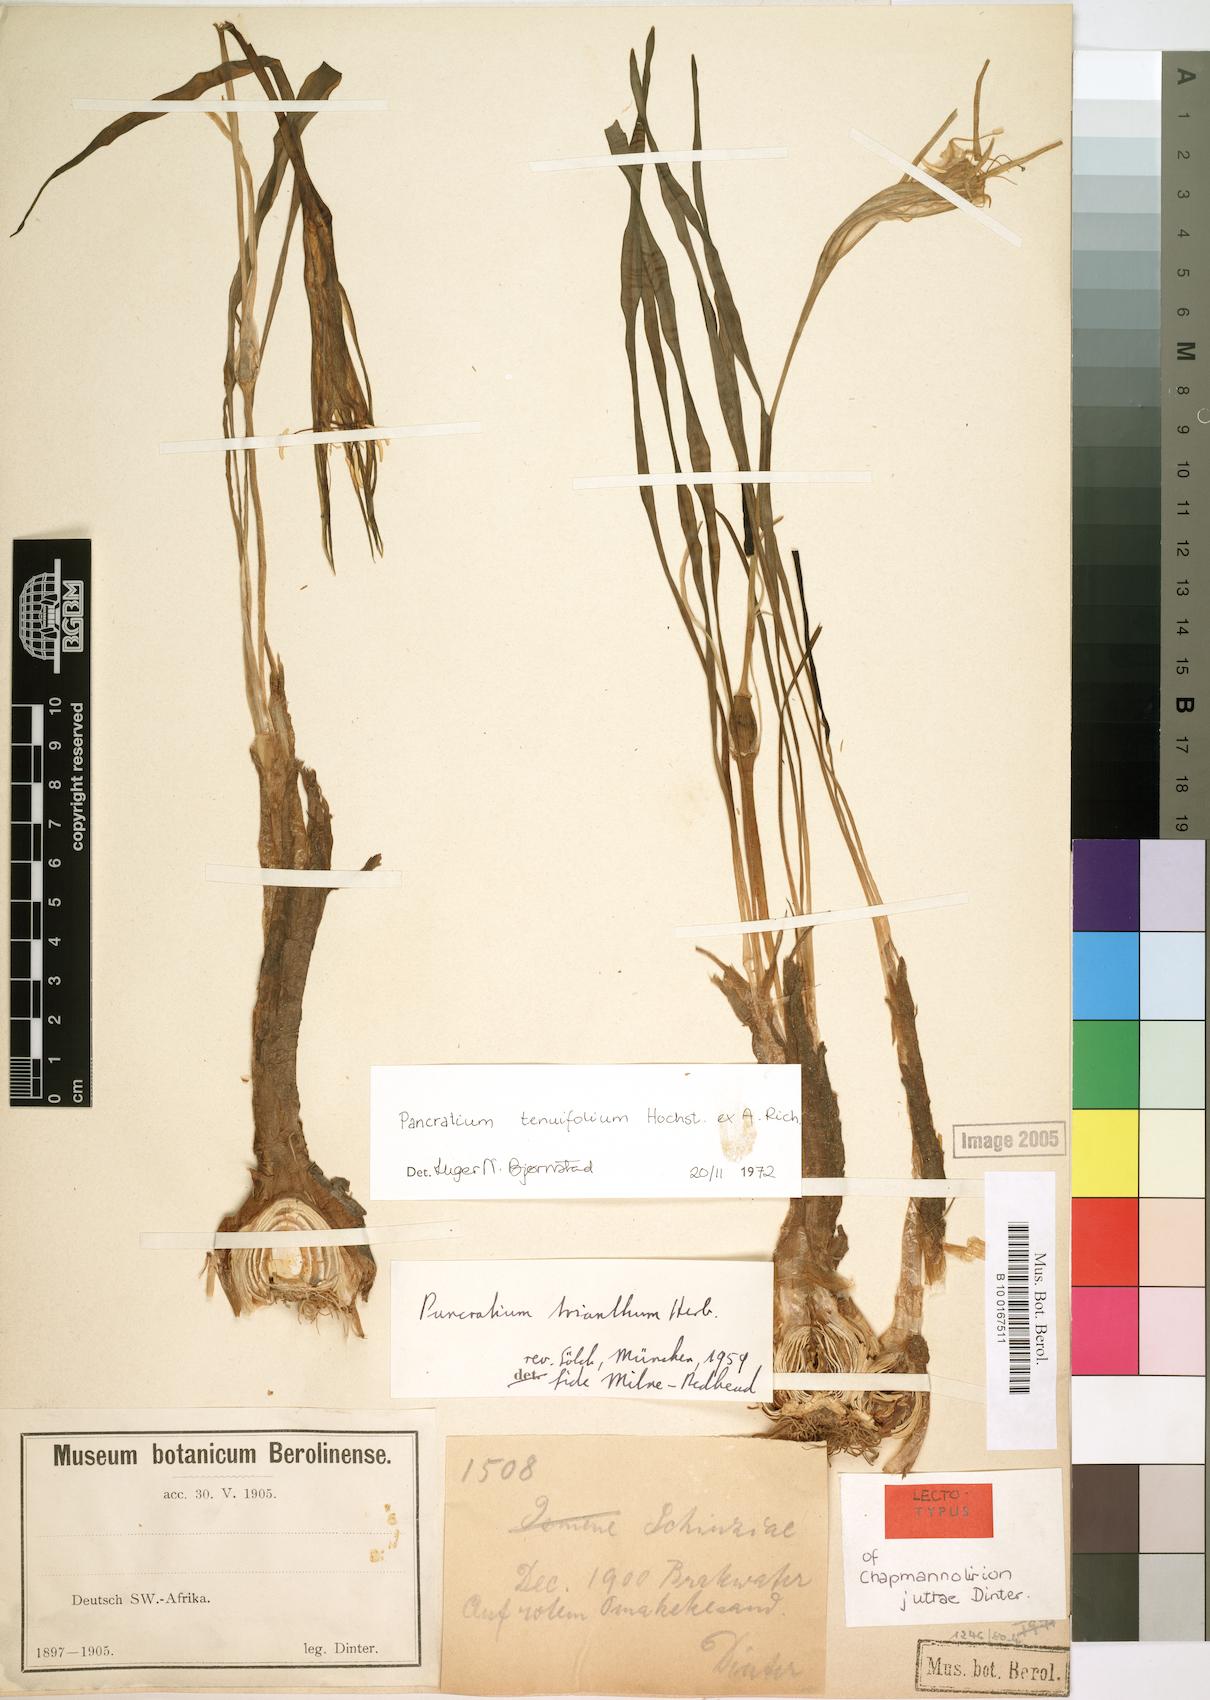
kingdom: Plantae
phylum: Tracheophyta
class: Liliopsida
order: Asparagales
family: Amaryllidaceae
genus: Pancratium
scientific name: Pancratium tenuifolium
